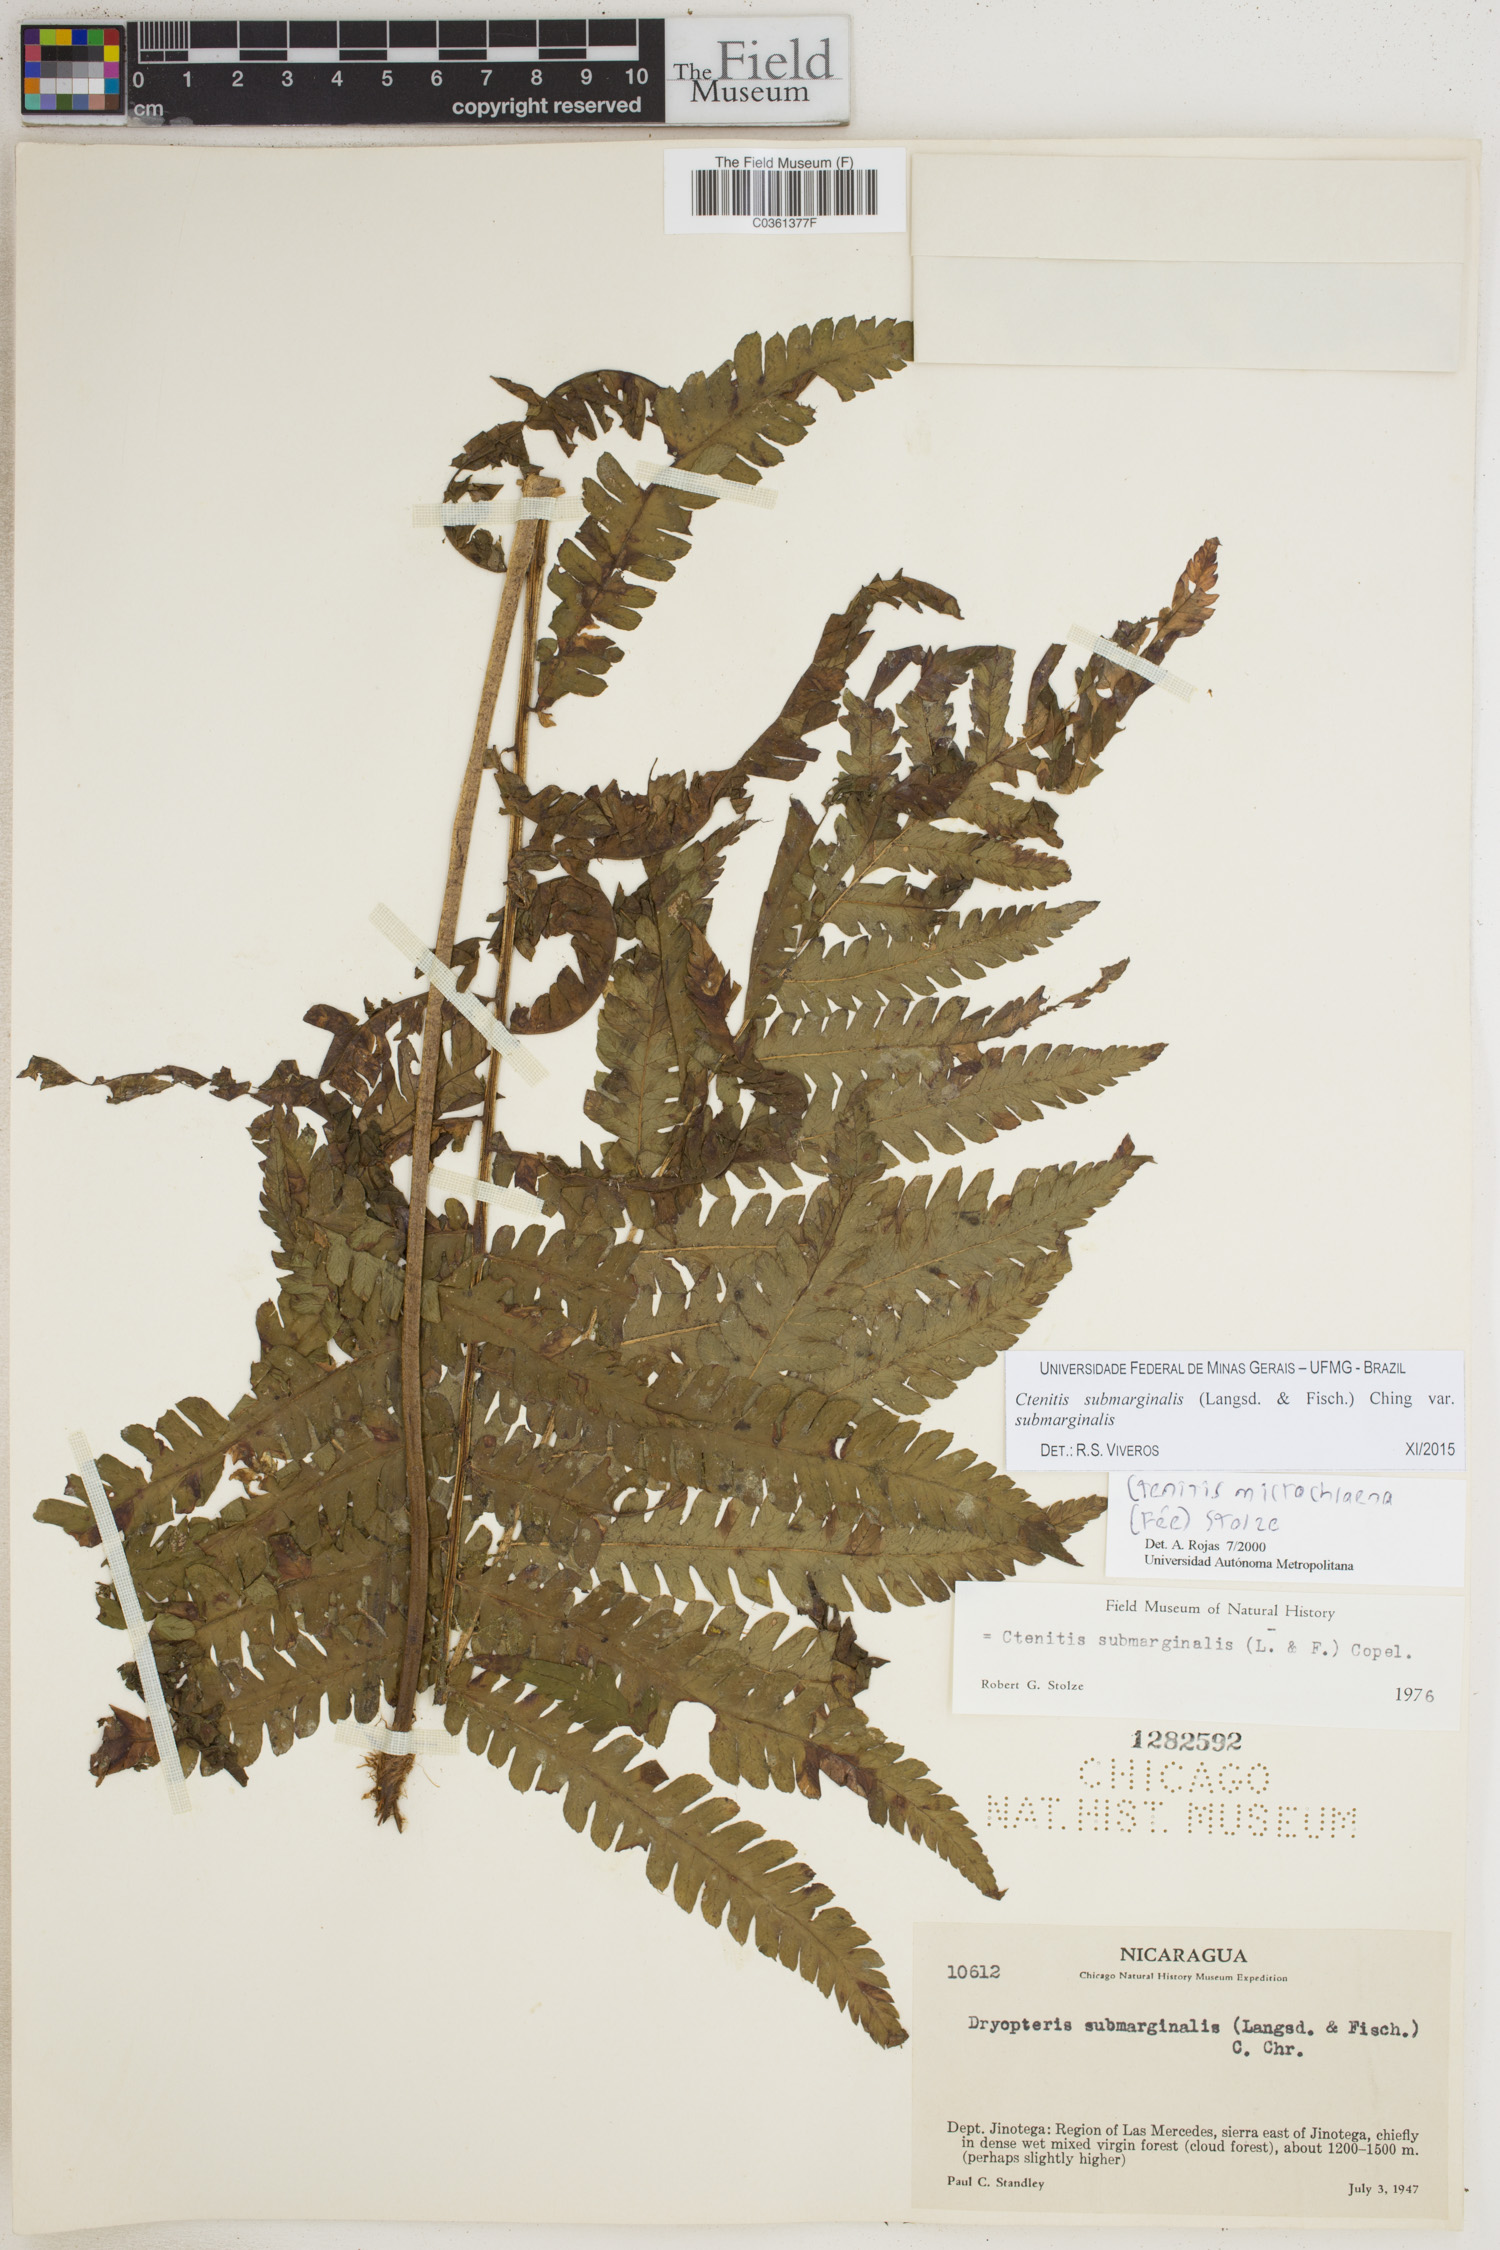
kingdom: Plantae
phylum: Tracheophyta
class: Polypodiopsida
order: Polypodiales
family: Dryopteridaceae
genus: Ctenitis
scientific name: Ctenitis submarginalis
